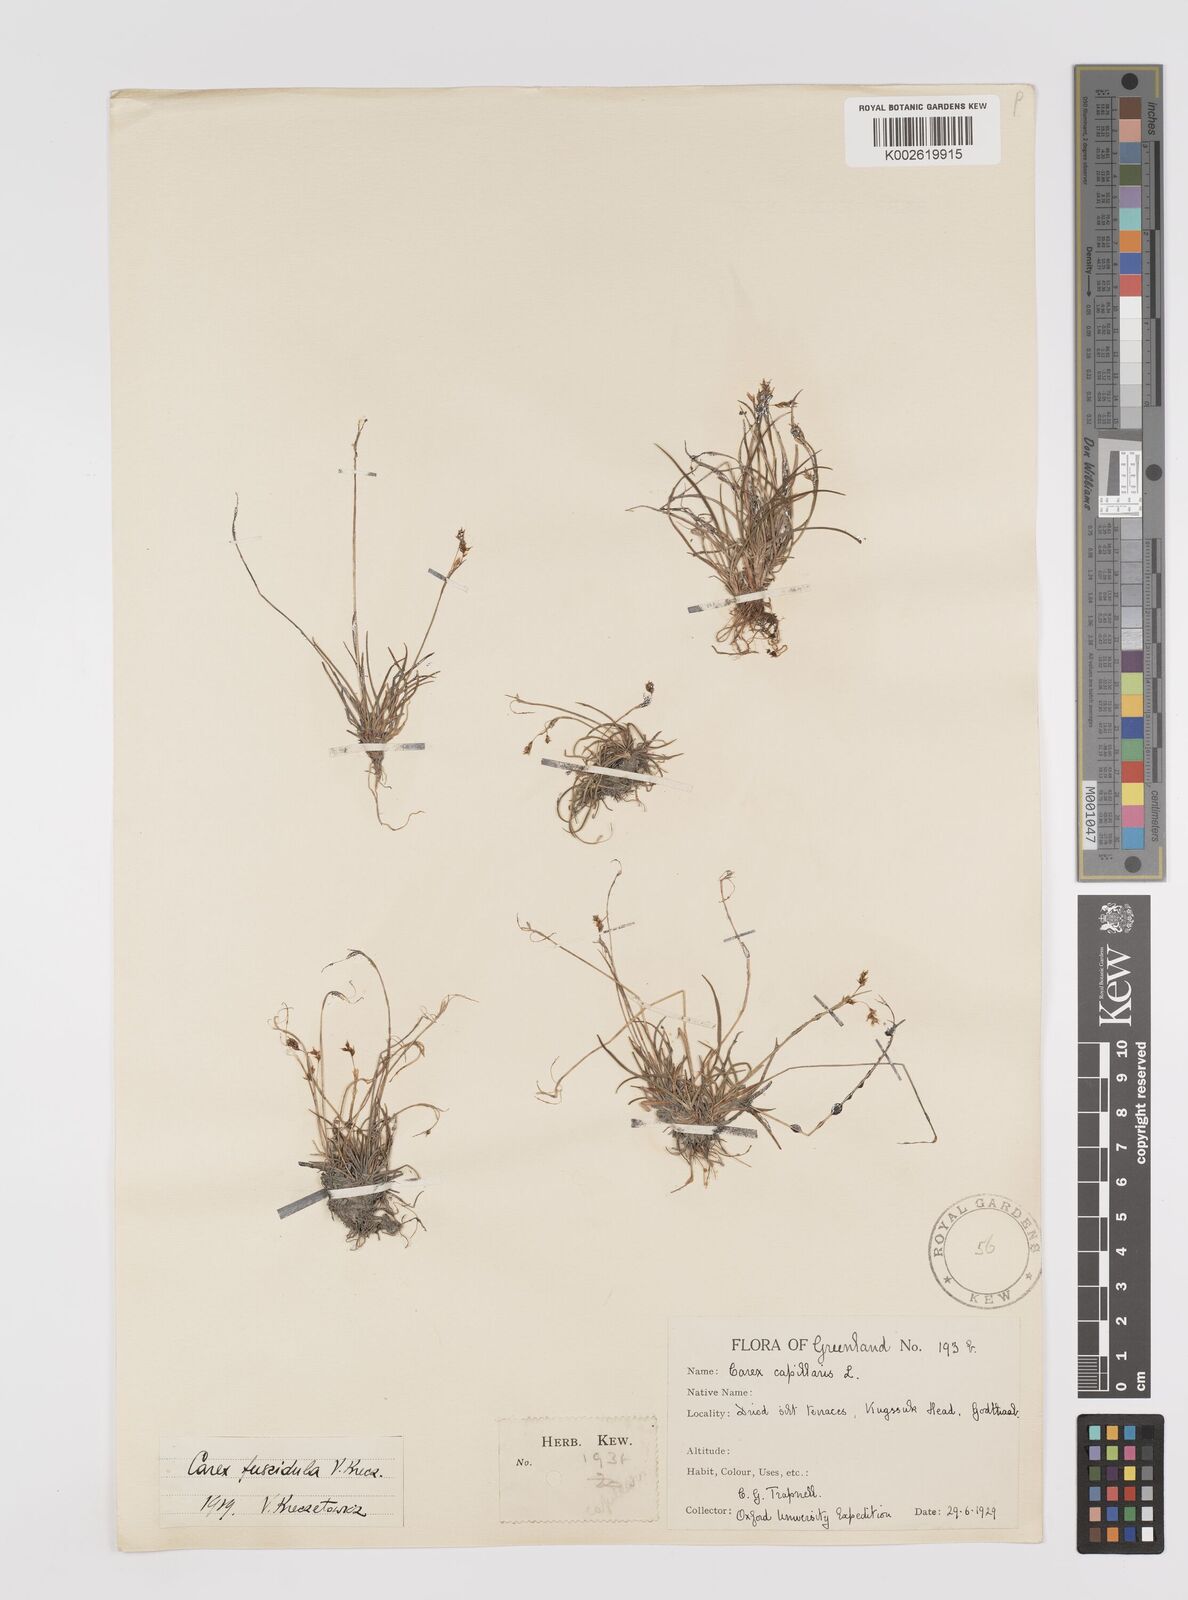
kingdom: Plantae
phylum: Tracheophyta
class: Liliopsida
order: Poales
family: Cyperaceae
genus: Carex
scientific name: Carex capillaris
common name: Hair sedge
